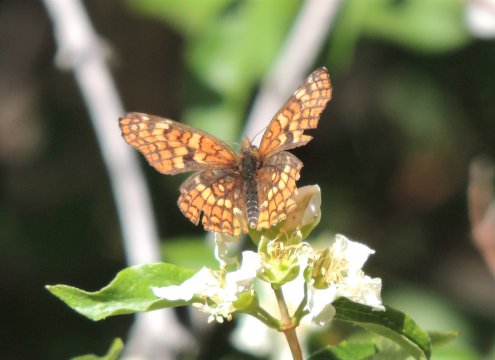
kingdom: Animalia
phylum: Arthropoda
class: Insecta
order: Lepidoptera
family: Nymphalidae
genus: Chlosyne
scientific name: Chlosyne palla
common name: Northern Checkerspot
